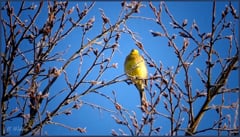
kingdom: Animalia
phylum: Chordata
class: Aves
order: Passeriformes
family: Emberizidae
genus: Emberiza
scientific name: Emberiza citrinella
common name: Yellowhammer
